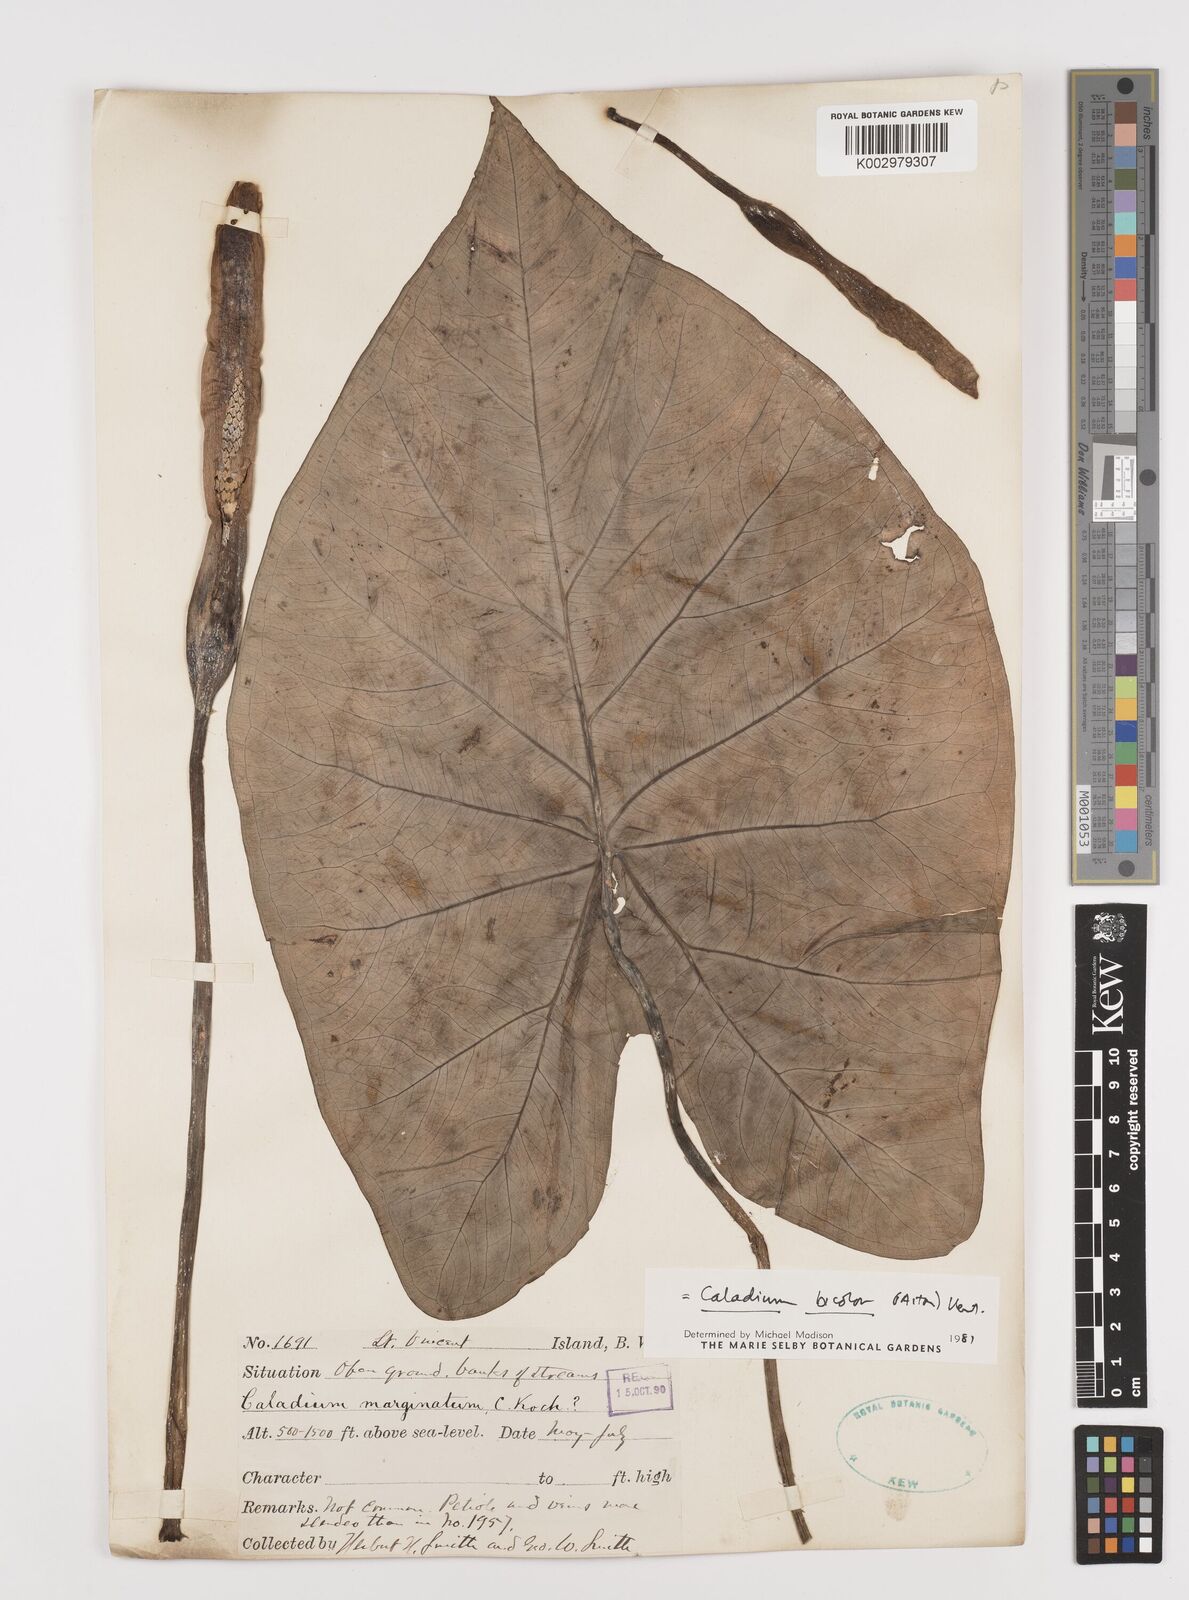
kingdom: Plantae
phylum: Tracheophyta
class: Liliopsida
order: Alismatales
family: Araceae
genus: Caladium
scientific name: Caladium bicolor
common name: Artist's pallet
